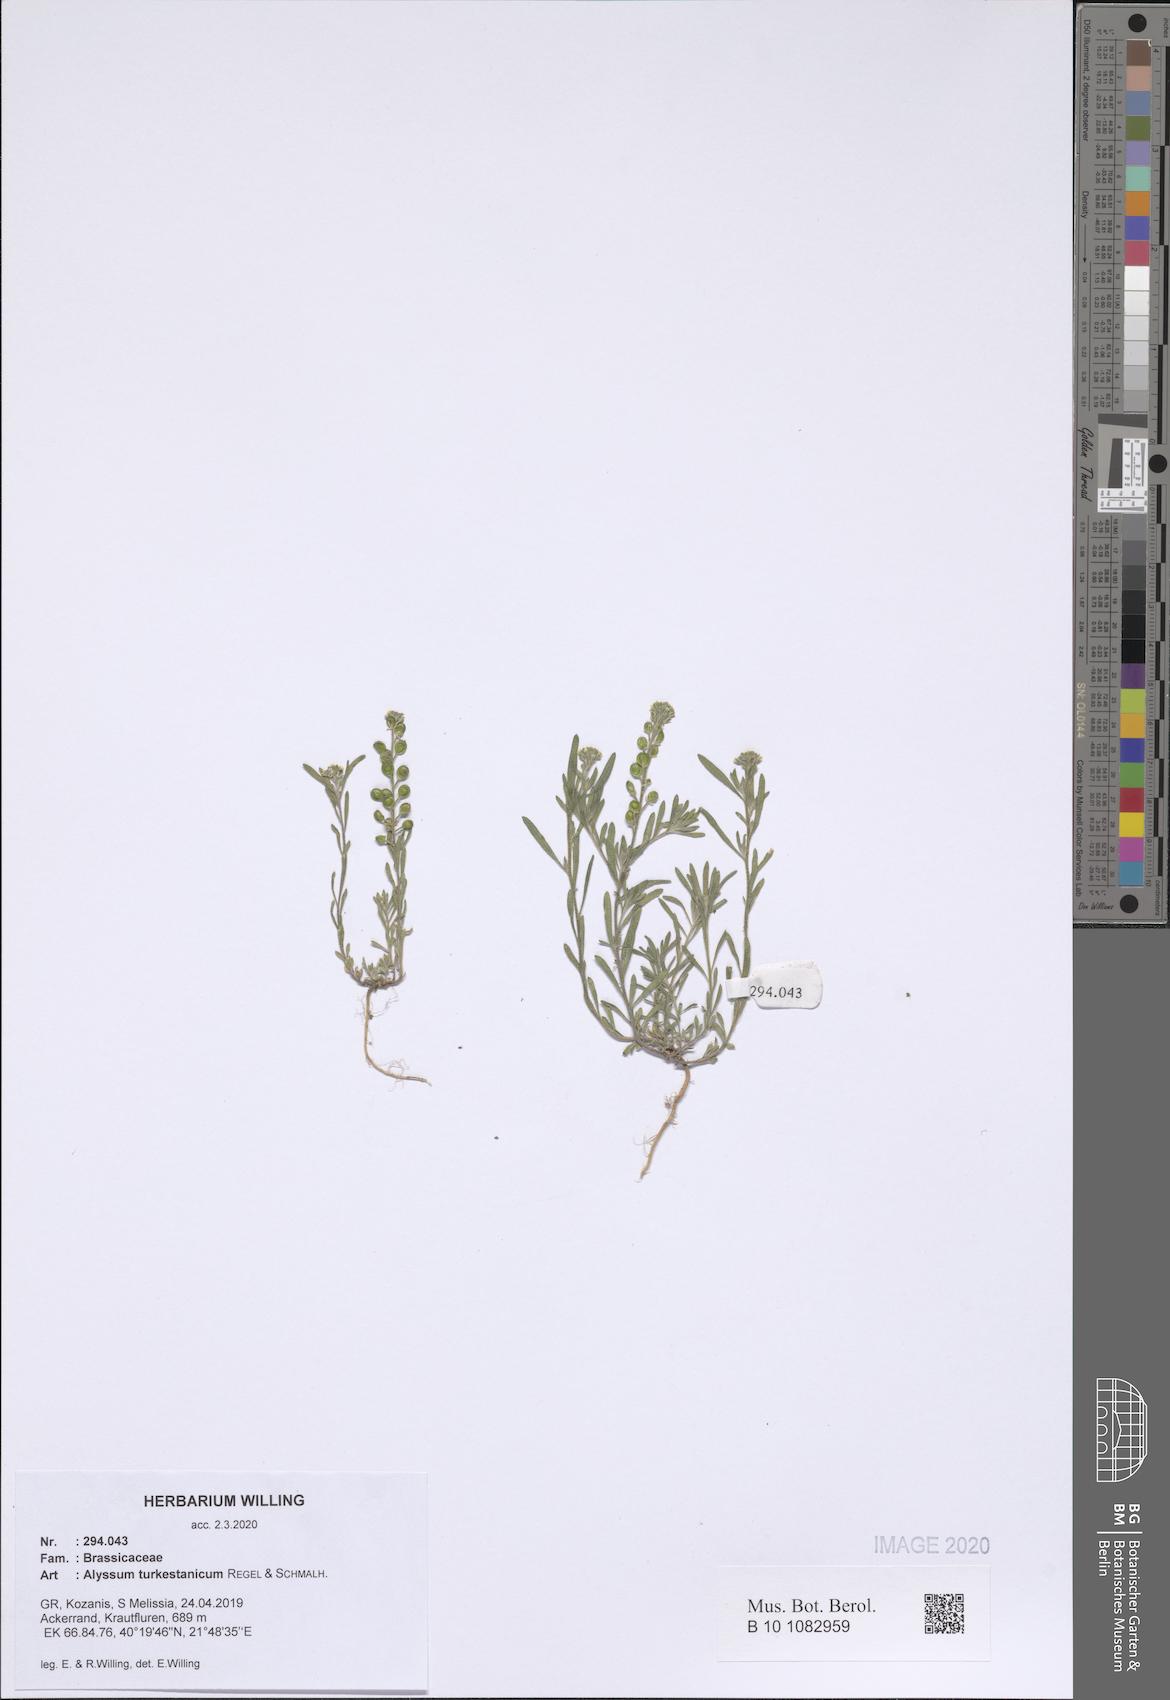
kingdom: Plantae
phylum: Tracheophyta
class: Magnoliopsida
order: Brassicales
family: Brassicaceae
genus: Alyssum
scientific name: Alyssum turkestanicum
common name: Desert alyssum
